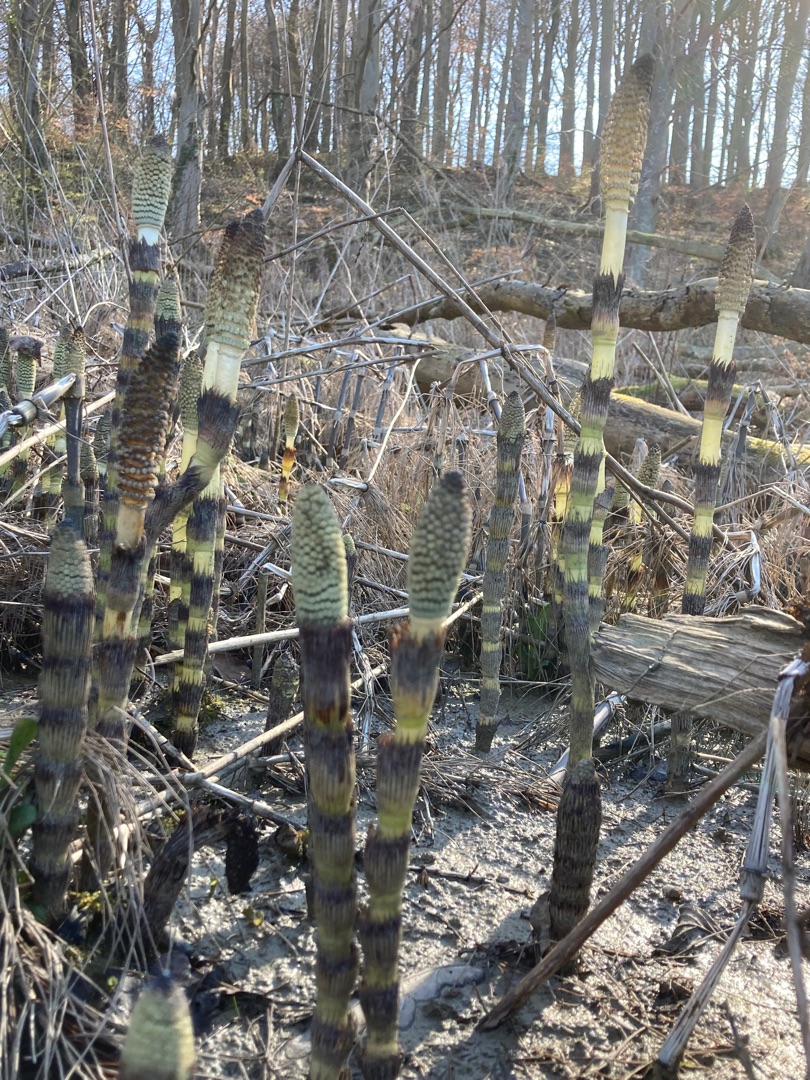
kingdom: Plantae
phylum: Tracheophyta
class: Polypodiopsida
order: Equisetales
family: Equisetaceae
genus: Equisetum
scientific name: Equisetum telmateia
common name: Elfenbens-padderok
